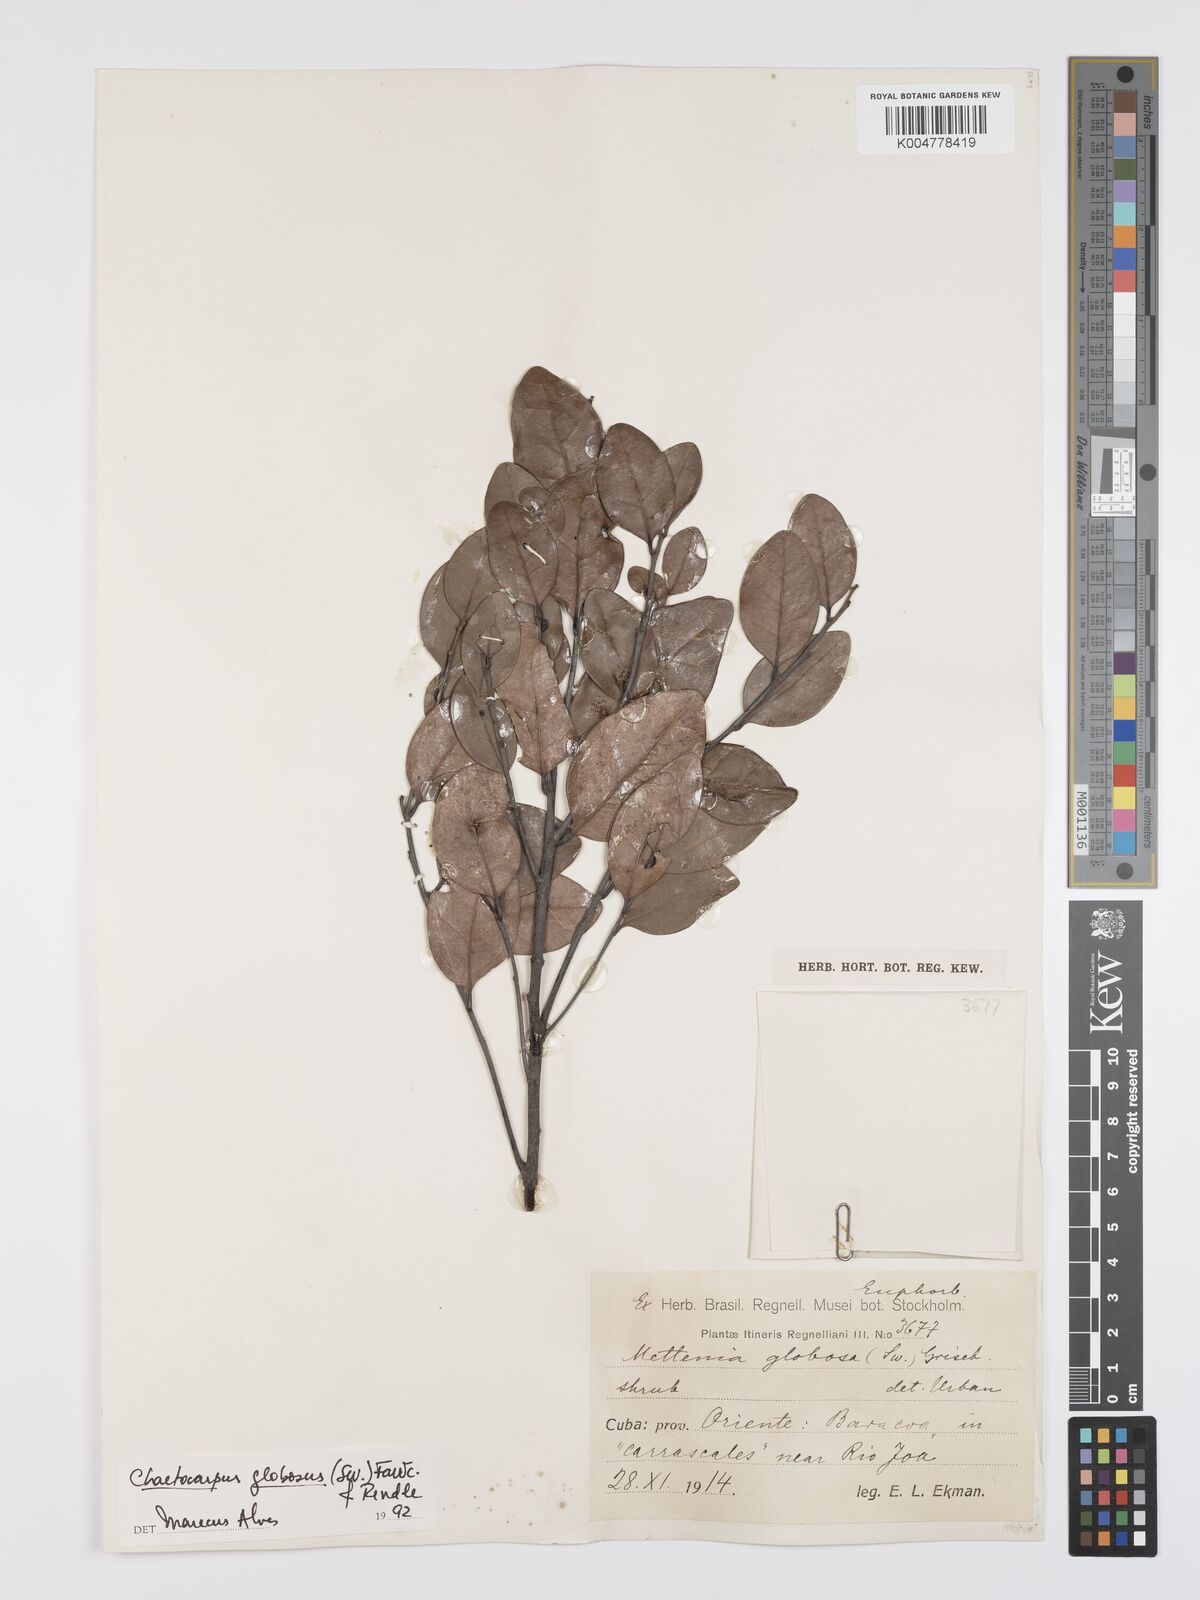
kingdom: Plantae
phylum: Tracheophyta
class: Magnoliopsida
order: Malpighiales
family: Peraceae
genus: Chaetocarpus
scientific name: Chaetocarpus globosus
